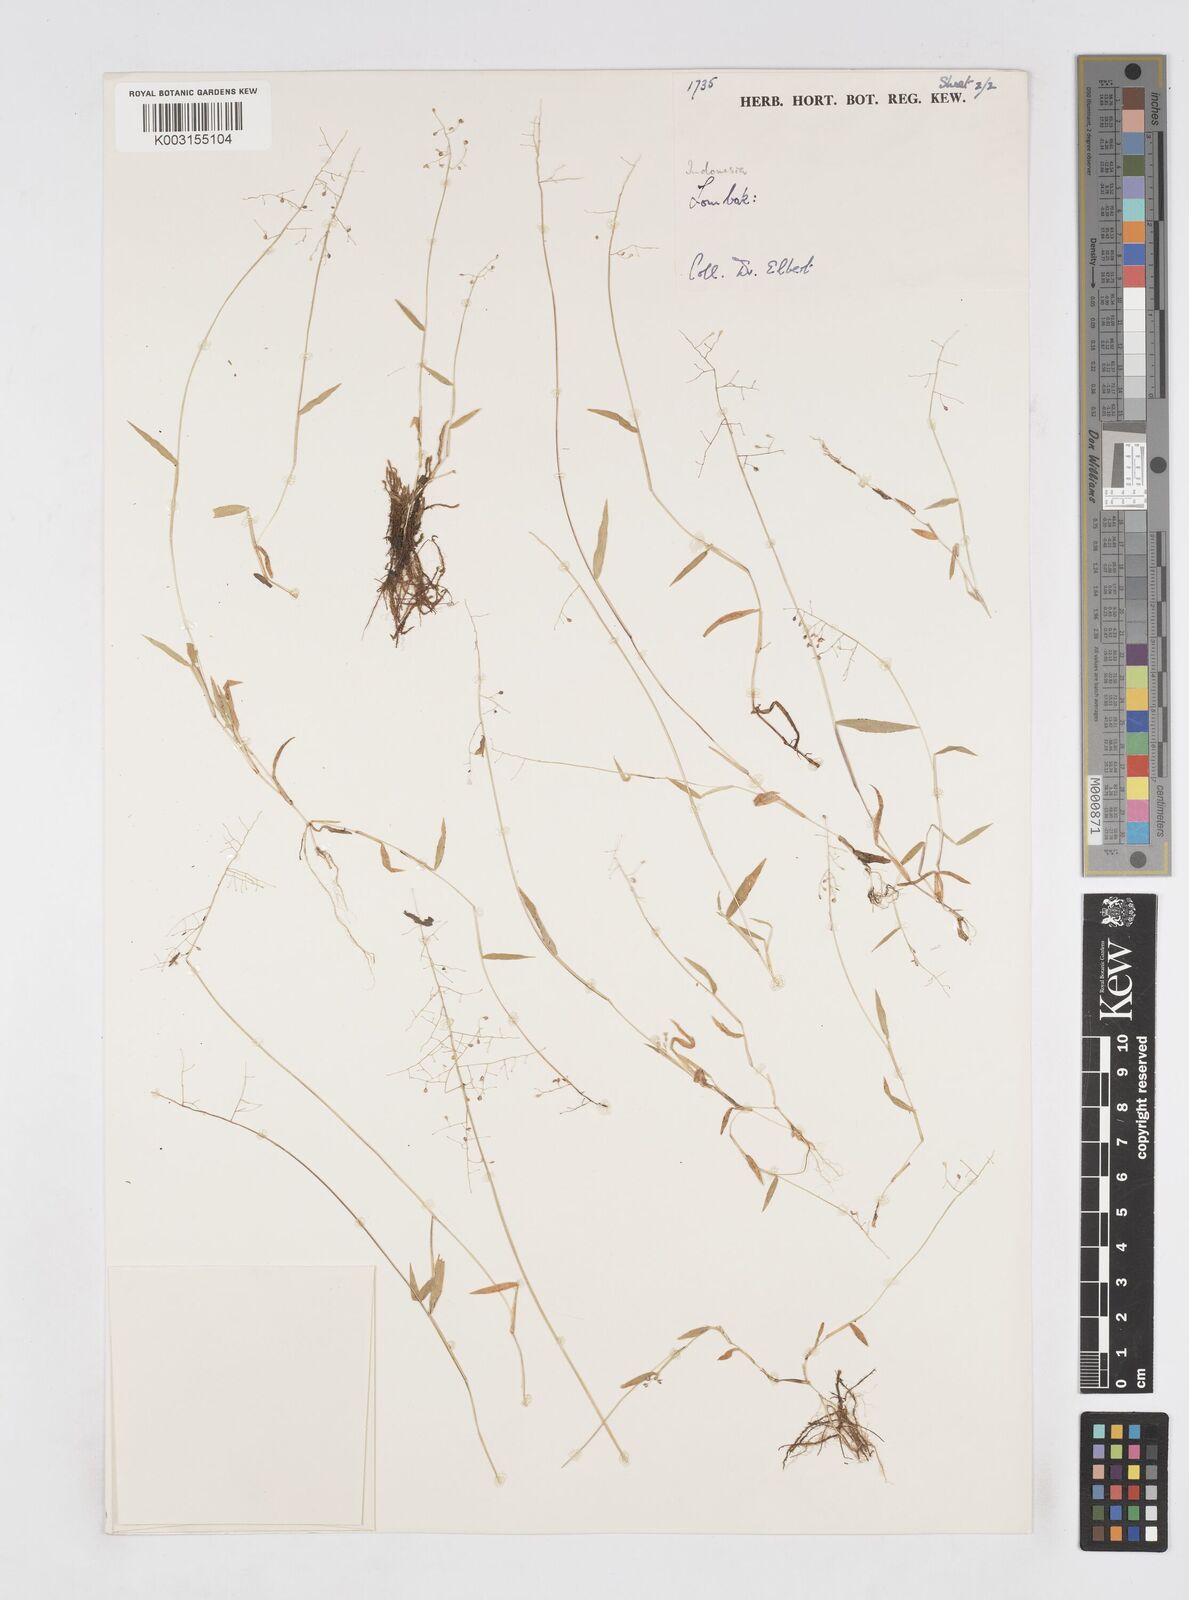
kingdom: Plantae
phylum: Tracheophyta
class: Liliopsida
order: Poales
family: Poaceae
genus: Isachne
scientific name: Isachne
